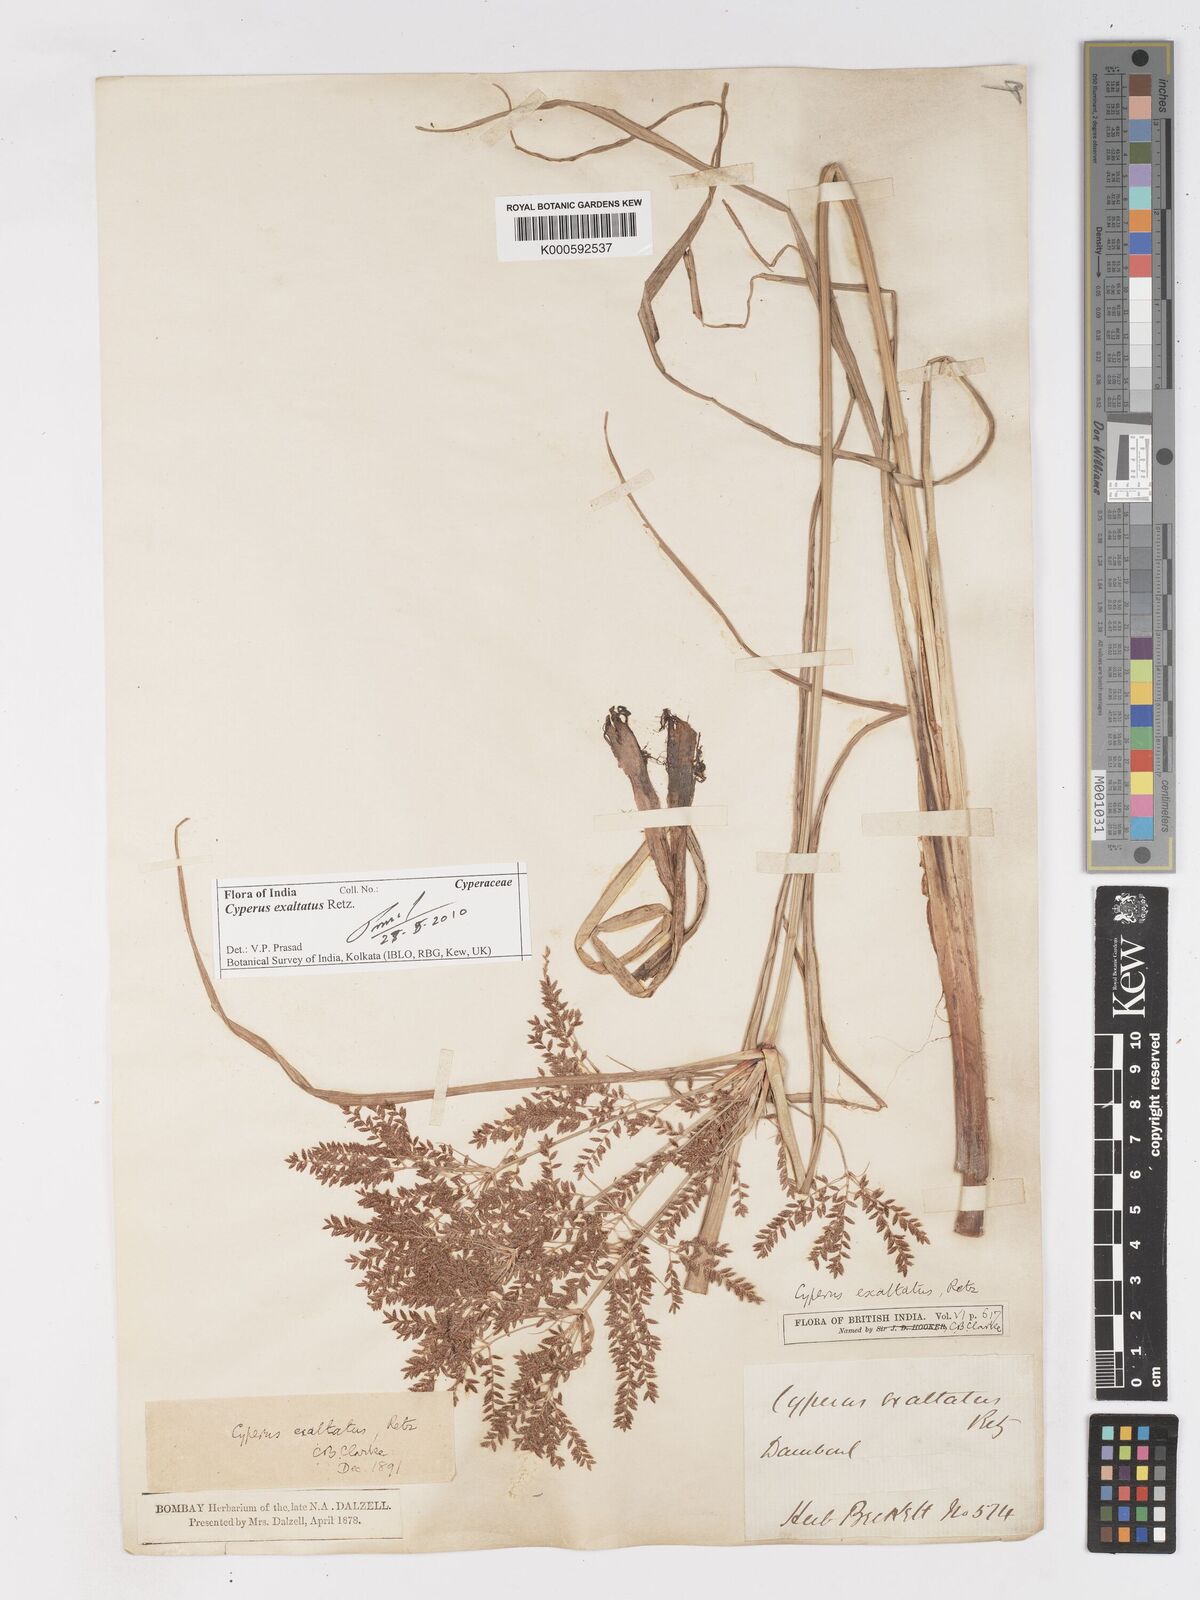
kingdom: Plantae
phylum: Tracheophyta
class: Liliopsida
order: Poales
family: Cyperaceae
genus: Cyperus
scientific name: Cyperus exaltatus
